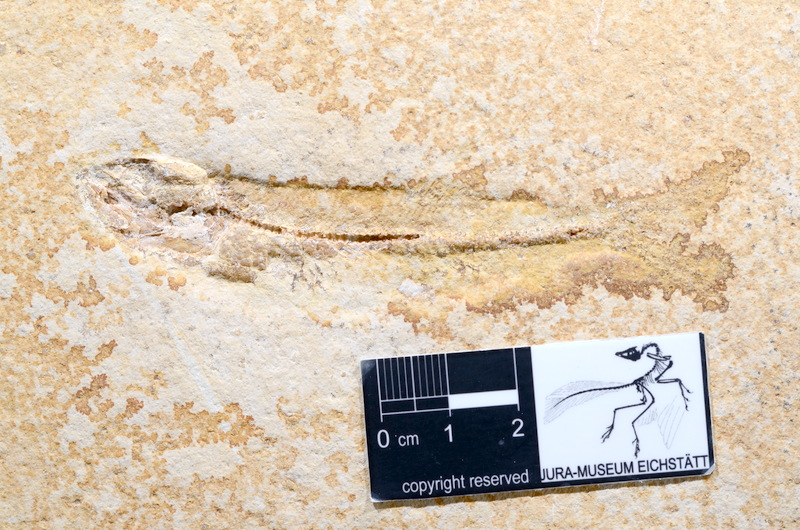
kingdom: Animalia
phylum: Chordata
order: Elopiformes
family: Anaethalionidae
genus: Anaethalion
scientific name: Anaethalion angustissimus
